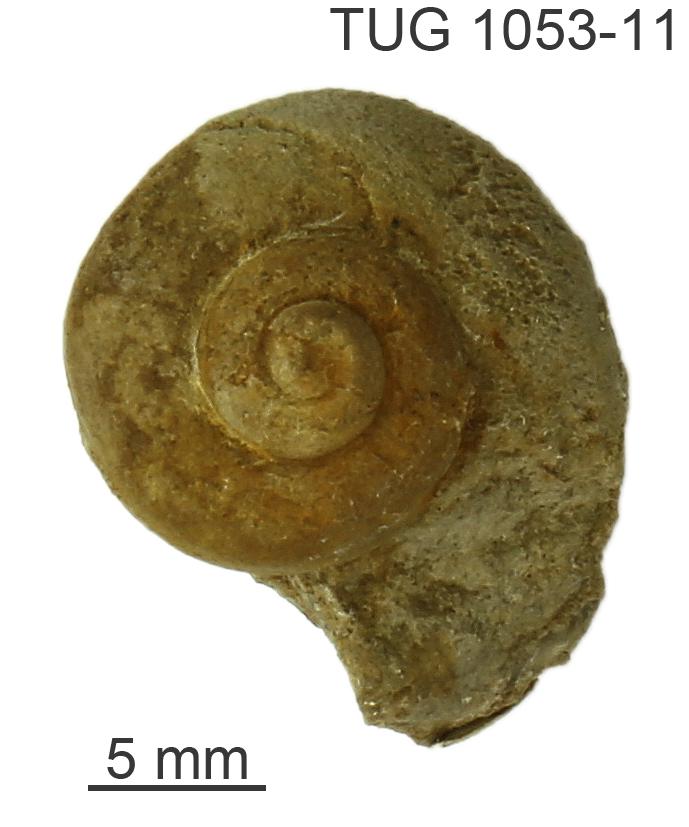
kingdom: Animalia
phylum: Mollusca
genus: Gonionema
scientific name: Gonionema
